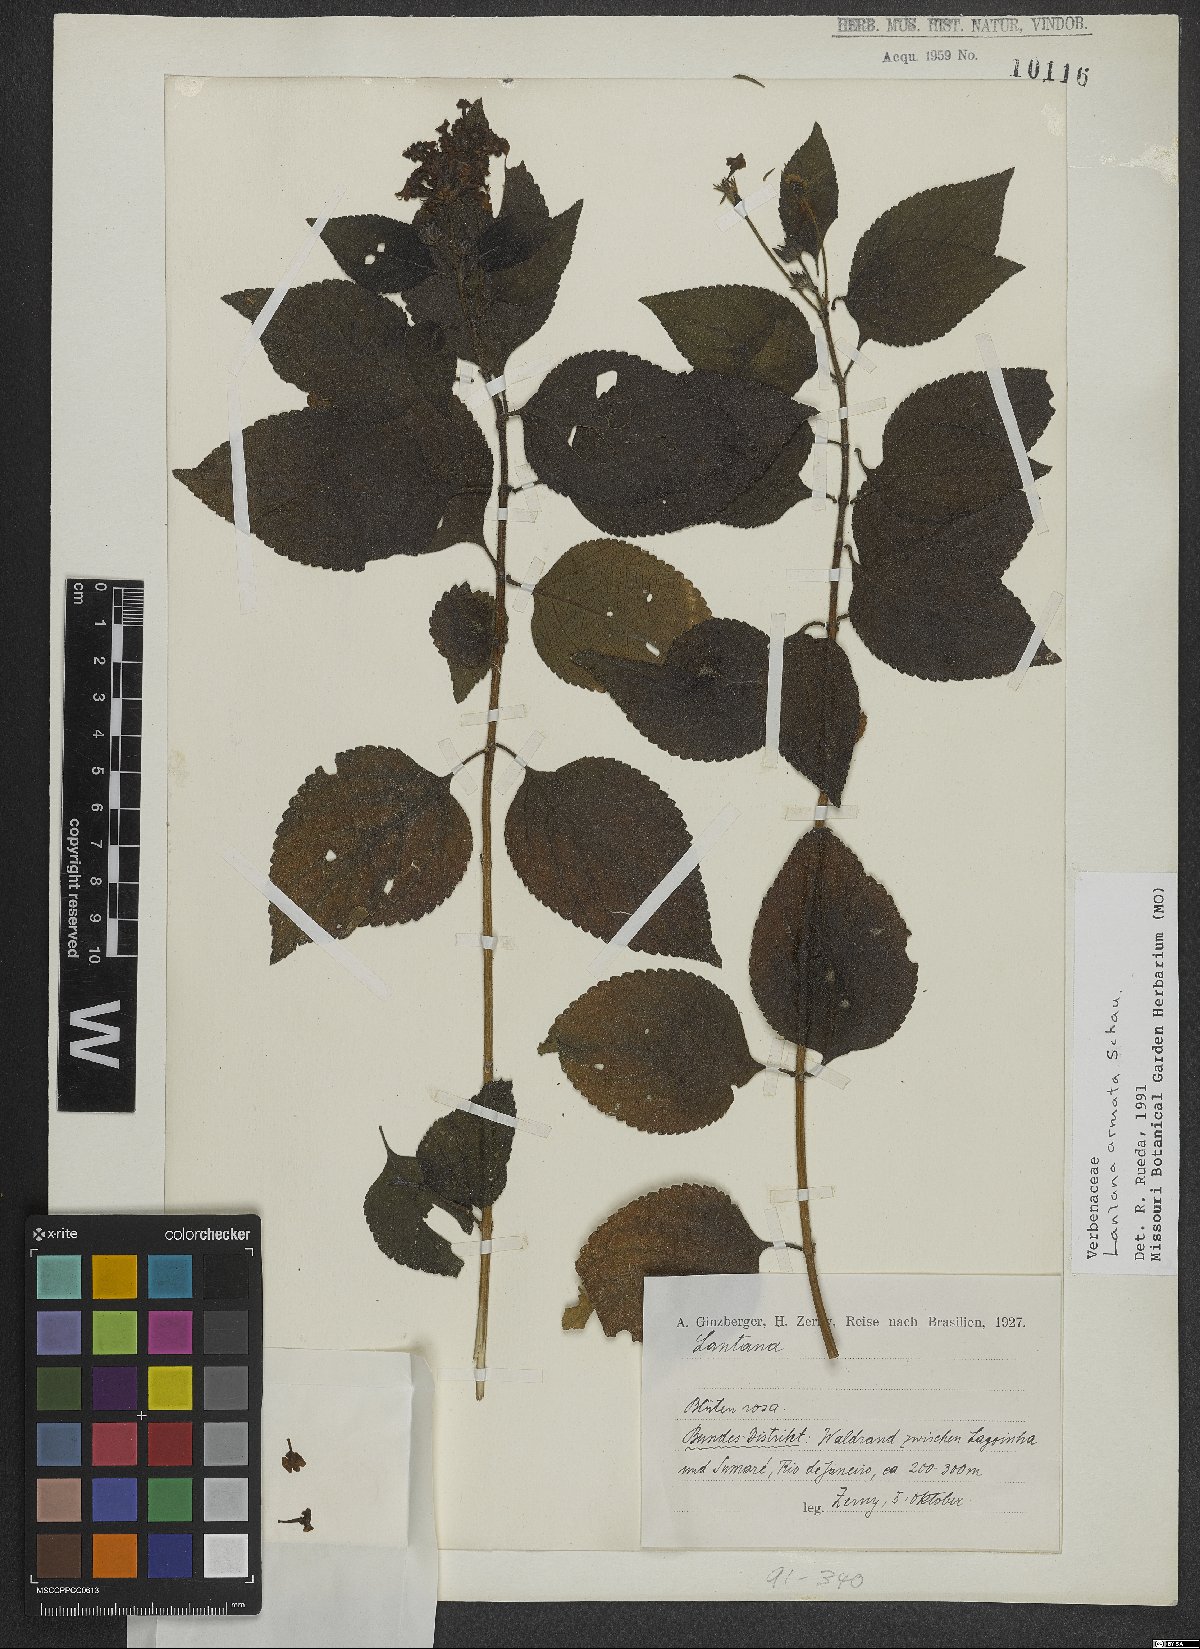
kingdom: Plantae
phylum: Tracheophyta
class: Magnoliopsida
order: Lamiales
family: Verbenaceae
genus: Lantana
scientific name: Lantana armata
